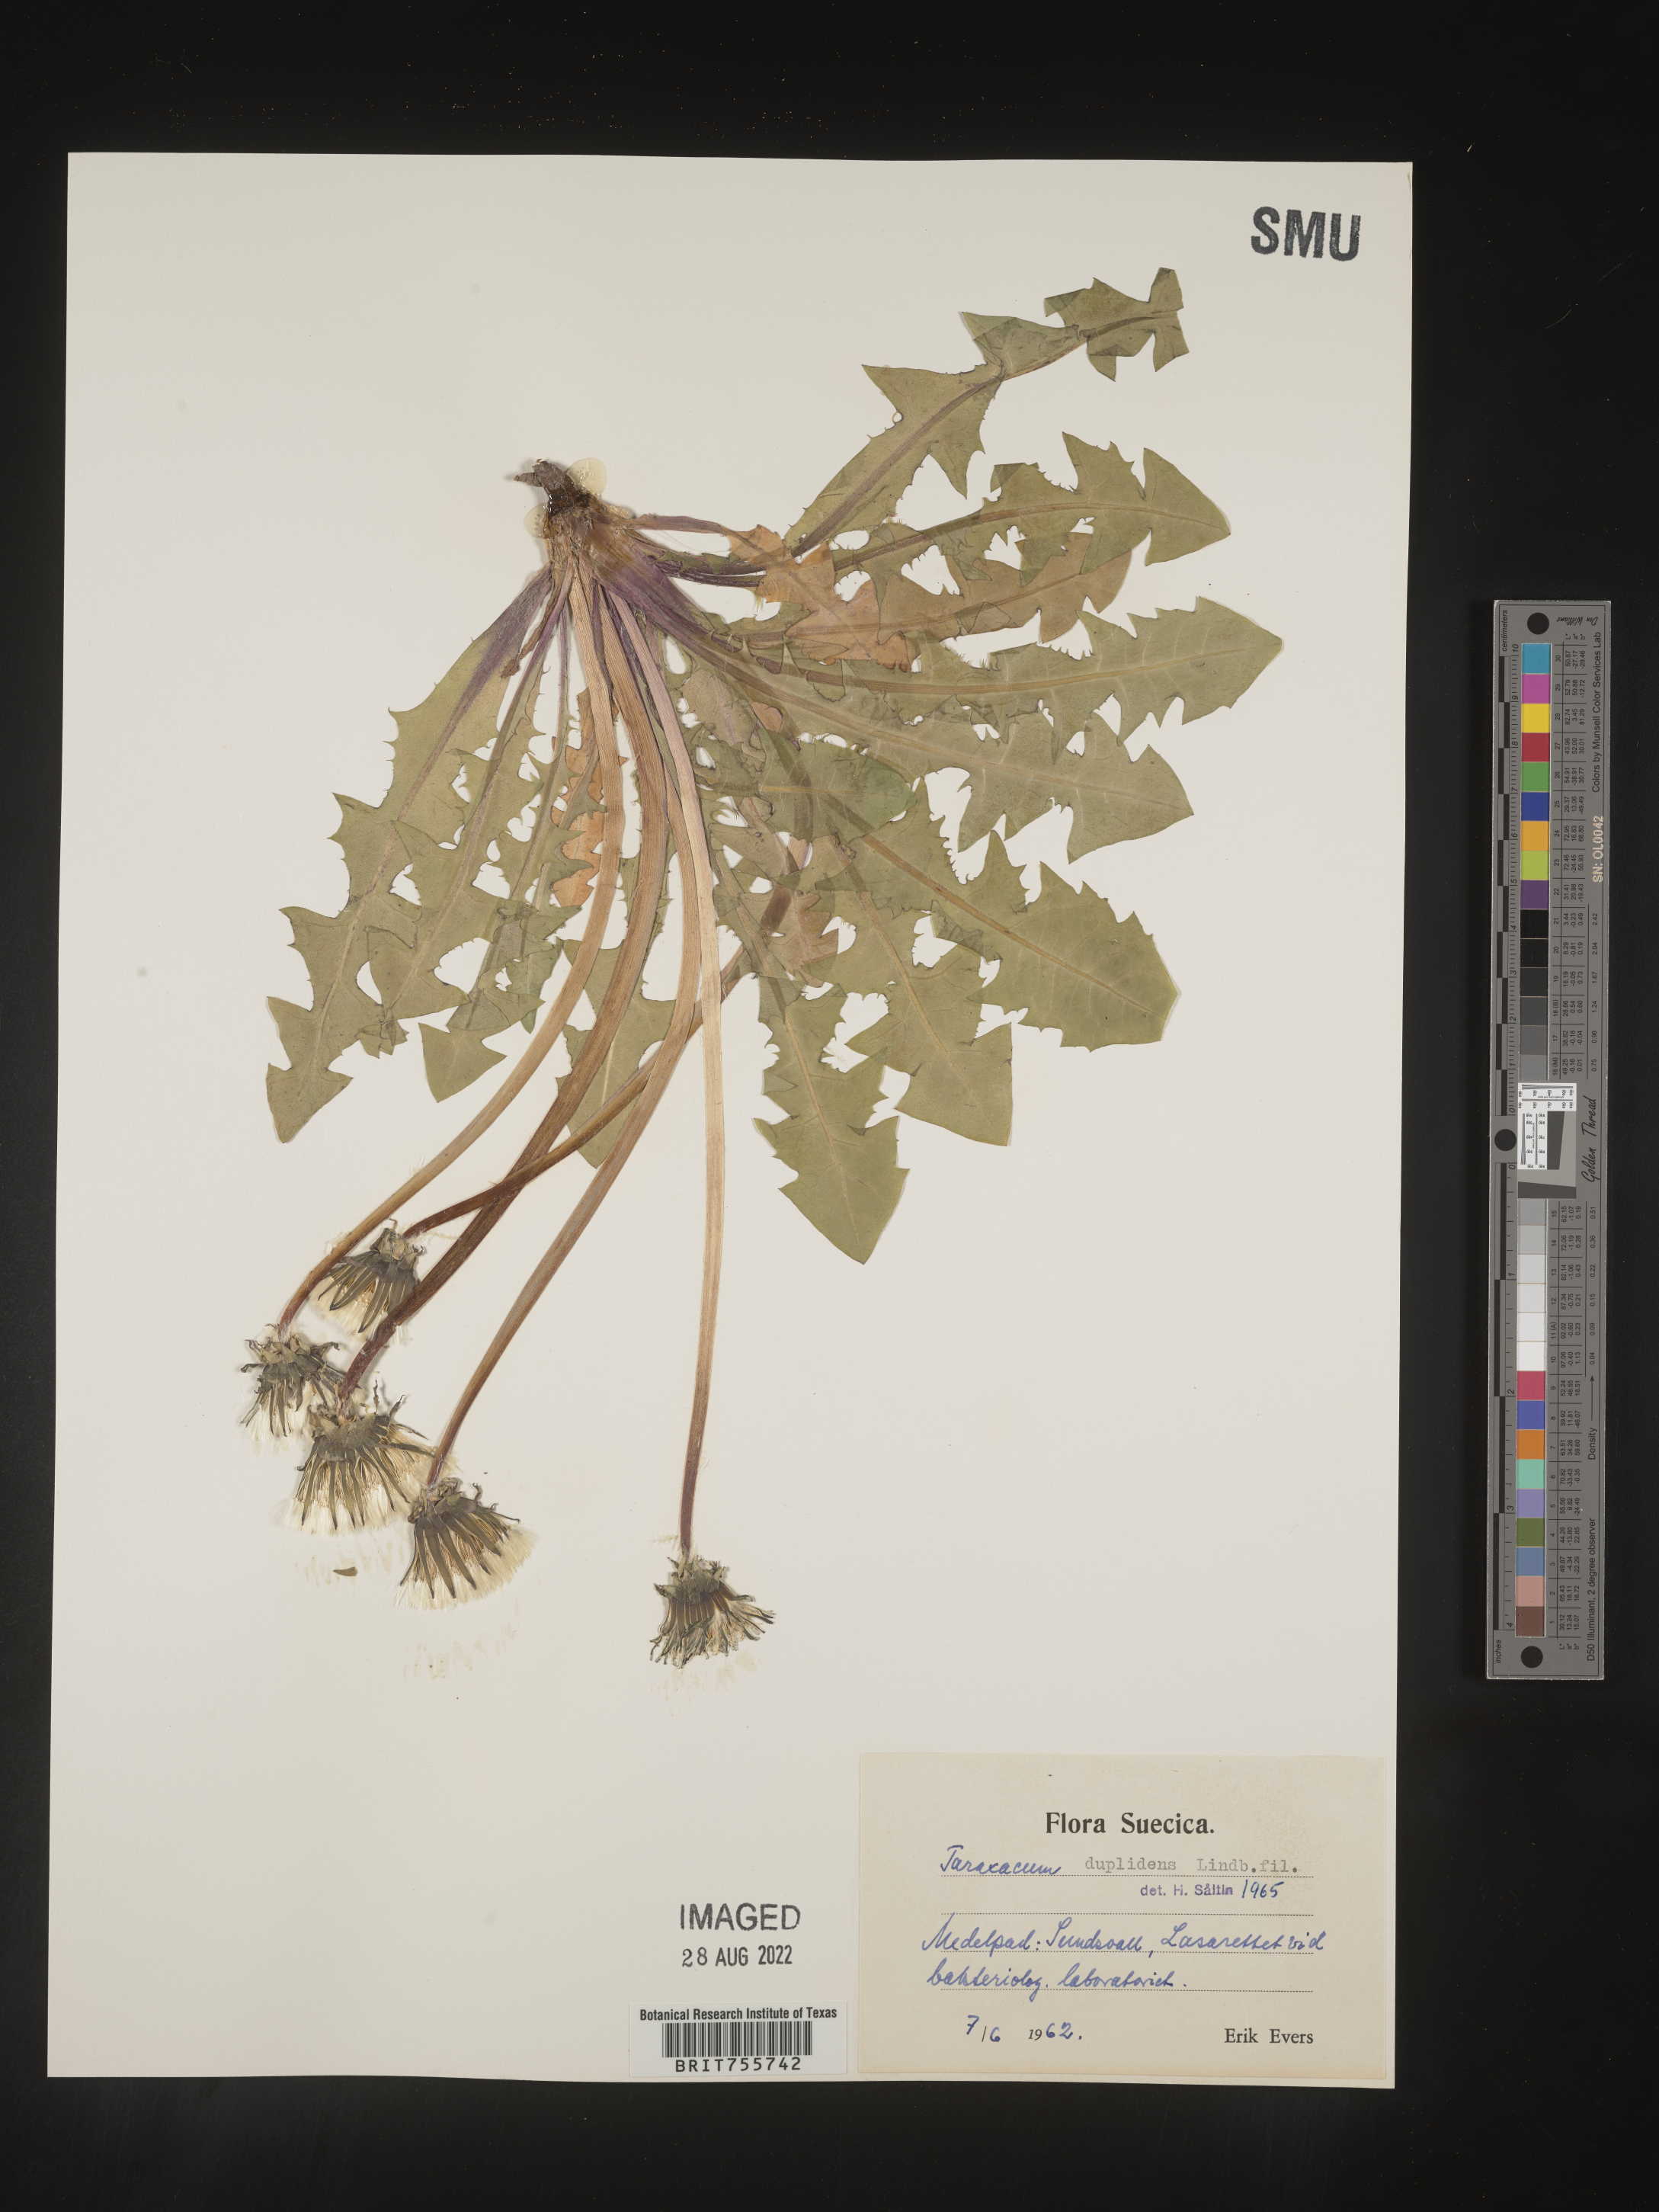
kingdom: Plantae
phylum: Tracheophyta
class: Magnoliopsida
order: Asterales
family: Asteraceae
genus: Taraxacum
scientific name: Taraxacum
